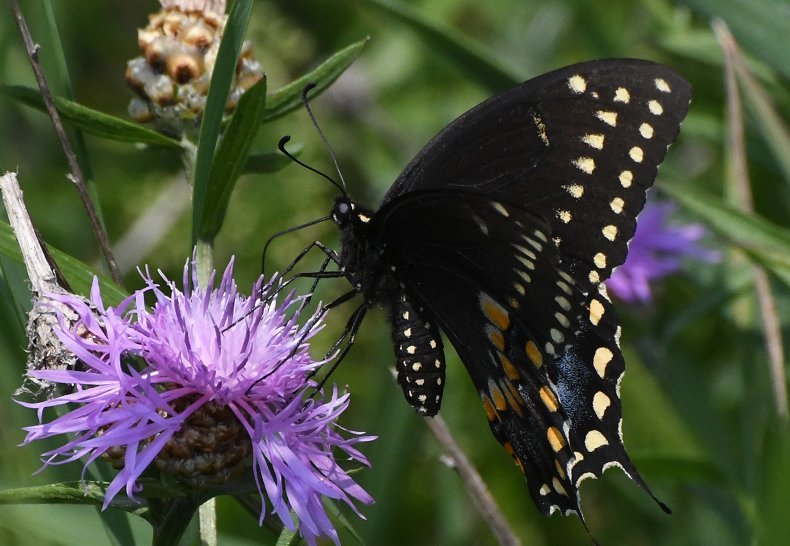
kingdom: Animalia
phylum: Arthropoda
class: Insecta
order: Lepidoptera
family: Papilionidae
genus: Papilio
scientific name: Papilio polyxenes
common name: Black Swallowtail
